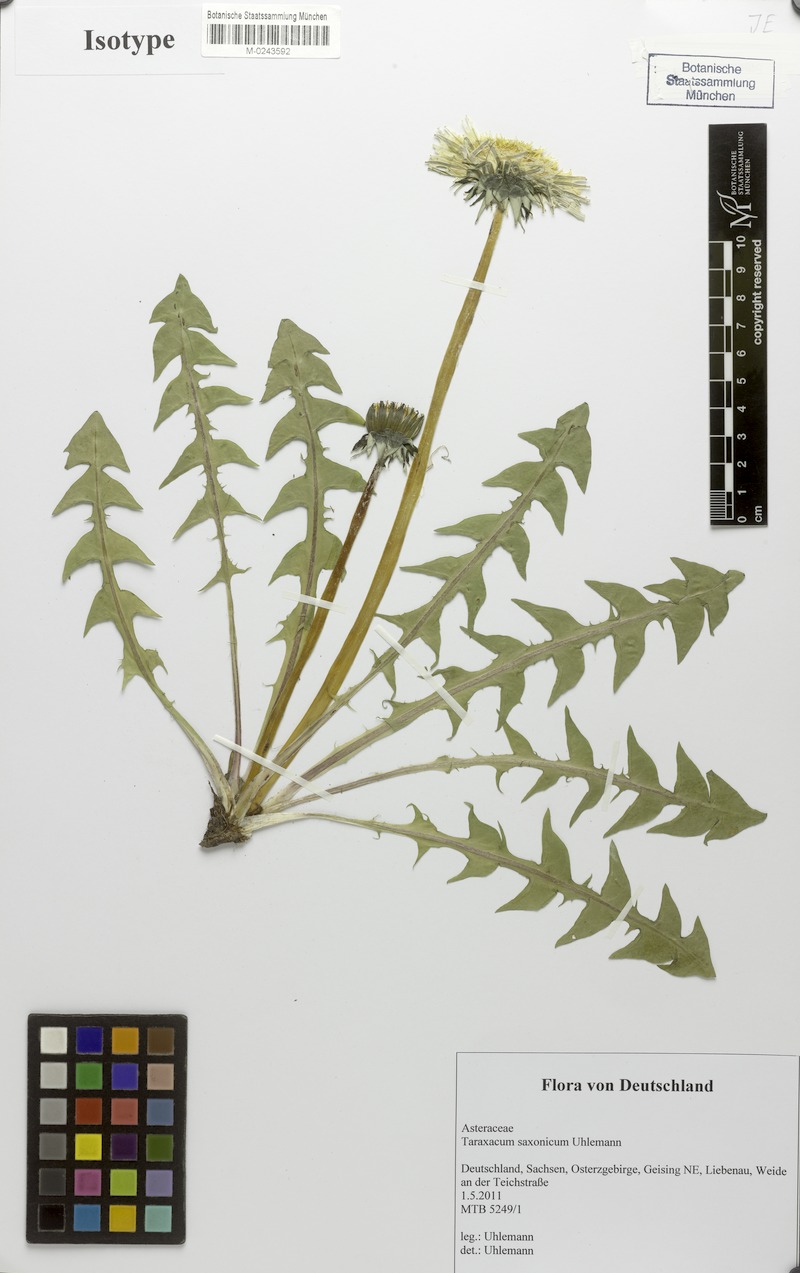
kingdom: Plantae
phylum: Tracheophyta
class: Magnoliopsida
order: Asterales
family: Asteraceae
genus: Taraxacum
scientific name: Taraxacum saxonicum
